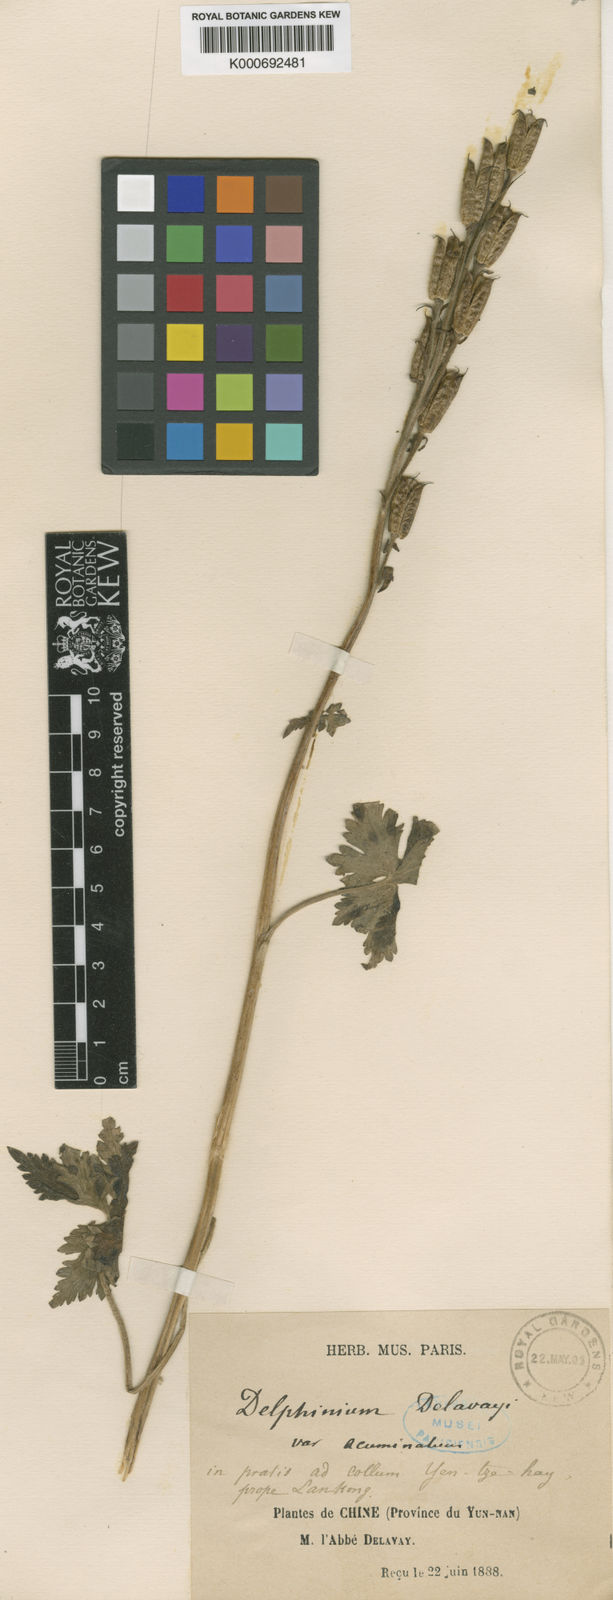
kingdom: Plantae
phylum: Tracheophyta
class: Magnoliopsida
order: Ranunculales
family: Ranunculaceae
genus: Delphinium
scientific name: Delphinium delavayi
